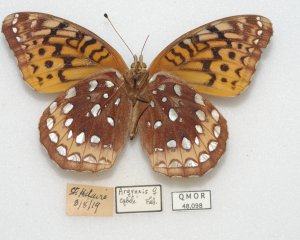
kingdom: Animalia
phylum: Arthropoda
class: Insecta
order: Lepidoptera
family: Nymphalidae
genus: Speyeria
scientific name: Speyeria cybele
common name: Great Spangled Fritillary
